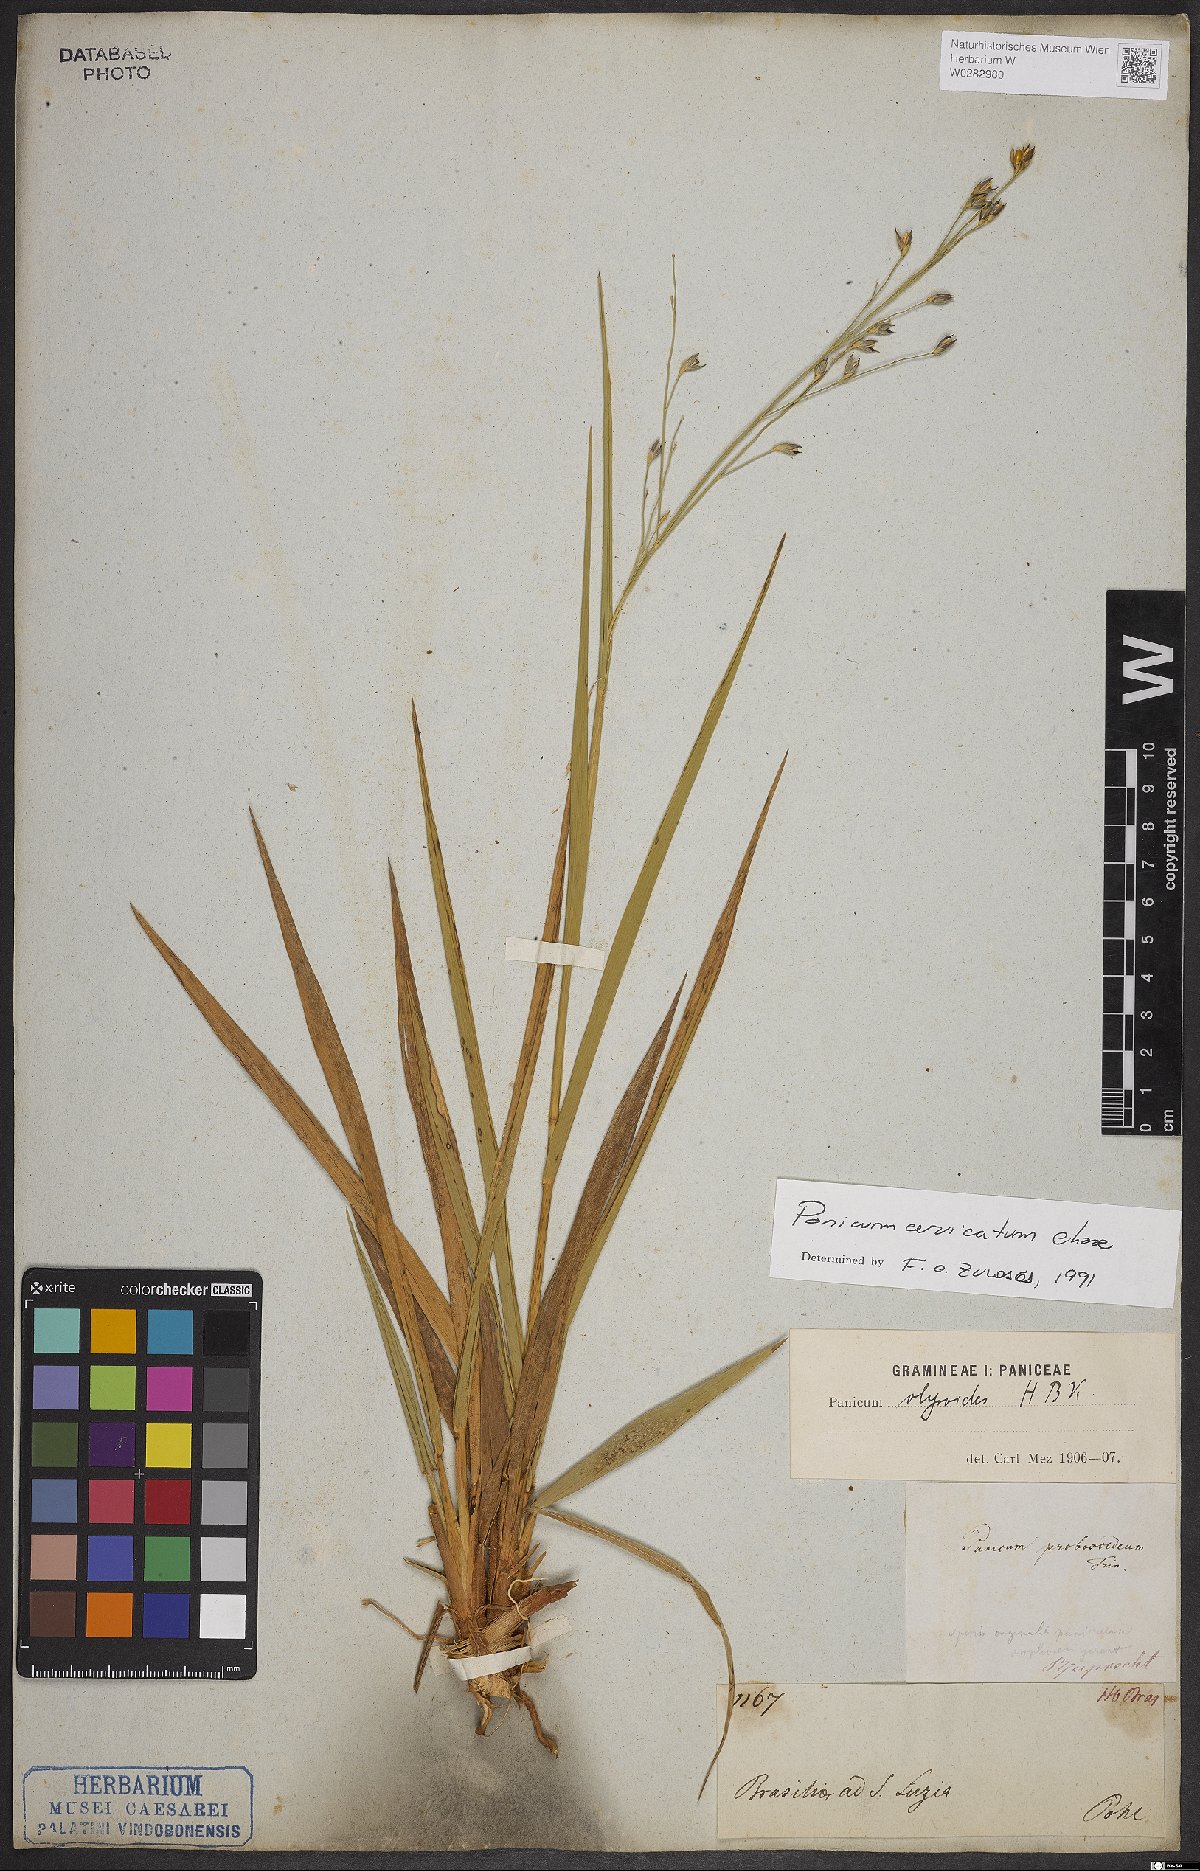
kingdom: Plantae
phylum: Tracheophyta
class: Liliopsida
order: Poales
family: Poaceae
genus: Panicum
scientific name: Panicum cervicatum
